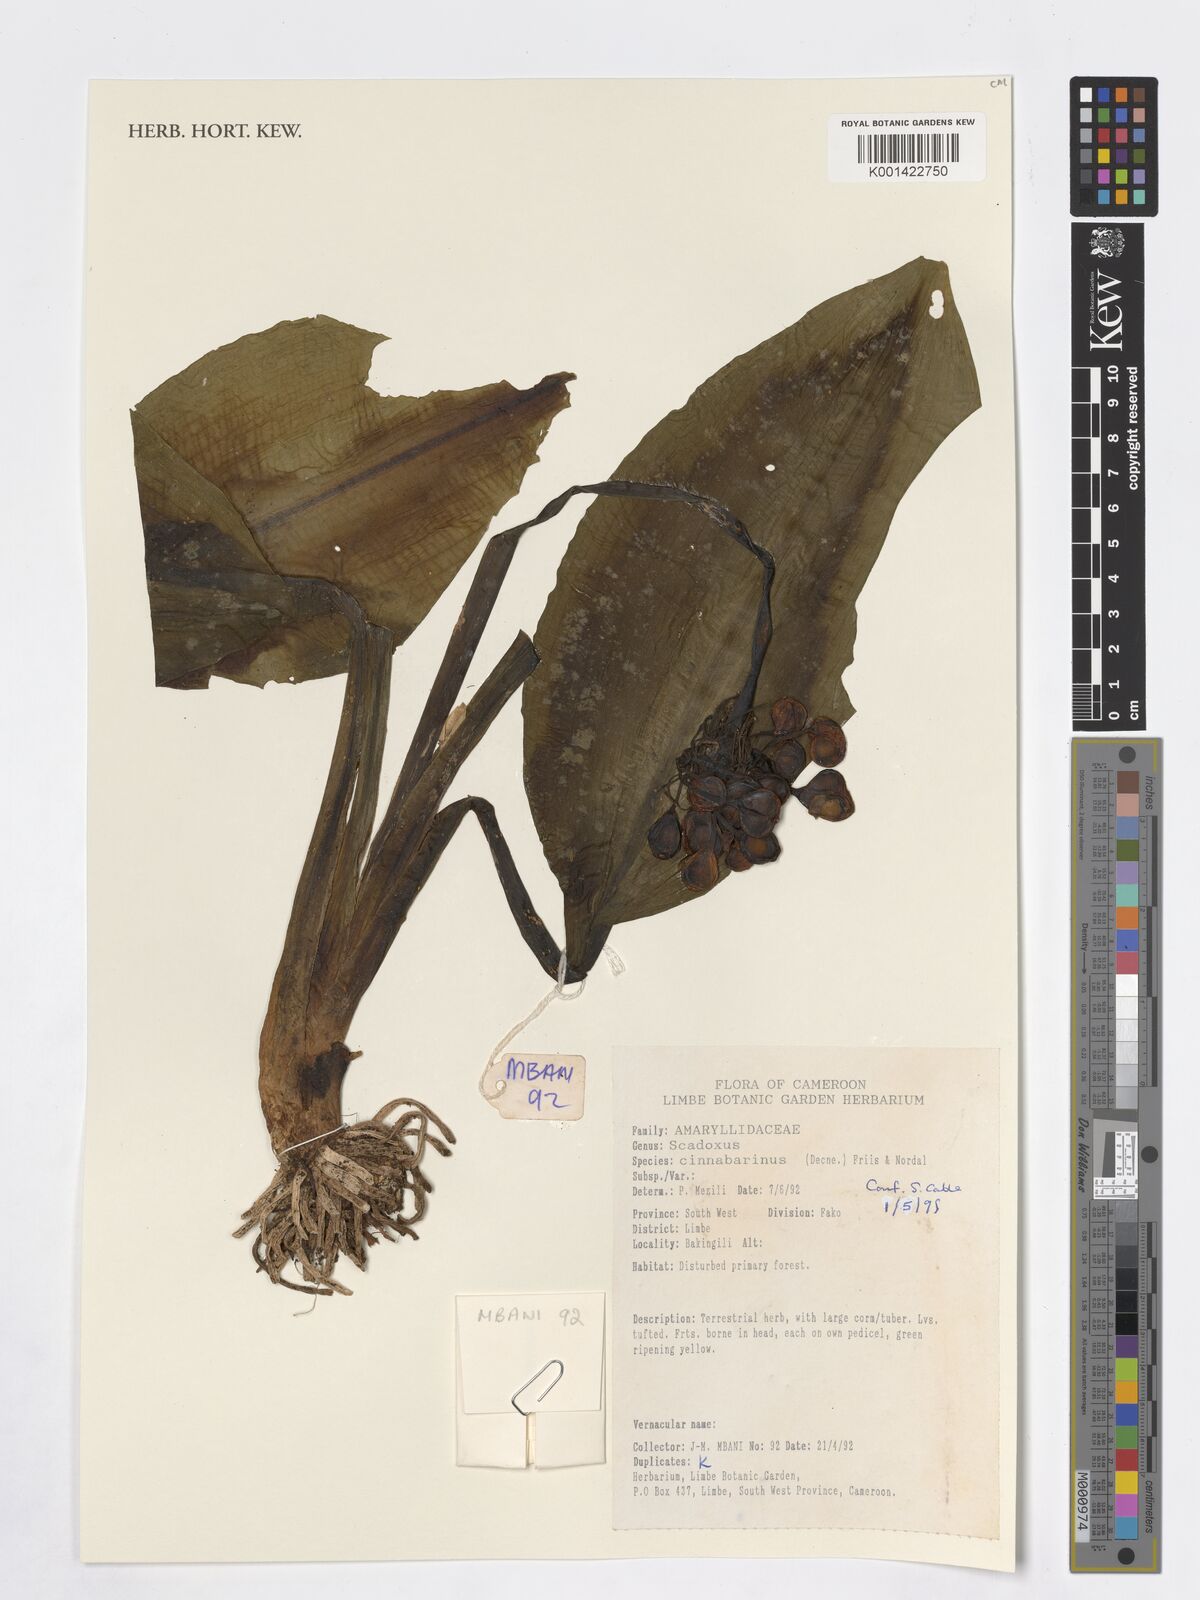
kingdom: Plantae
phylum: Tracheophyta
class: Liliopsida
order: Asparagales
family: Amaryllidaceae
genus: Scadoxus
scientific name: Scadoxus cinnabarinus
